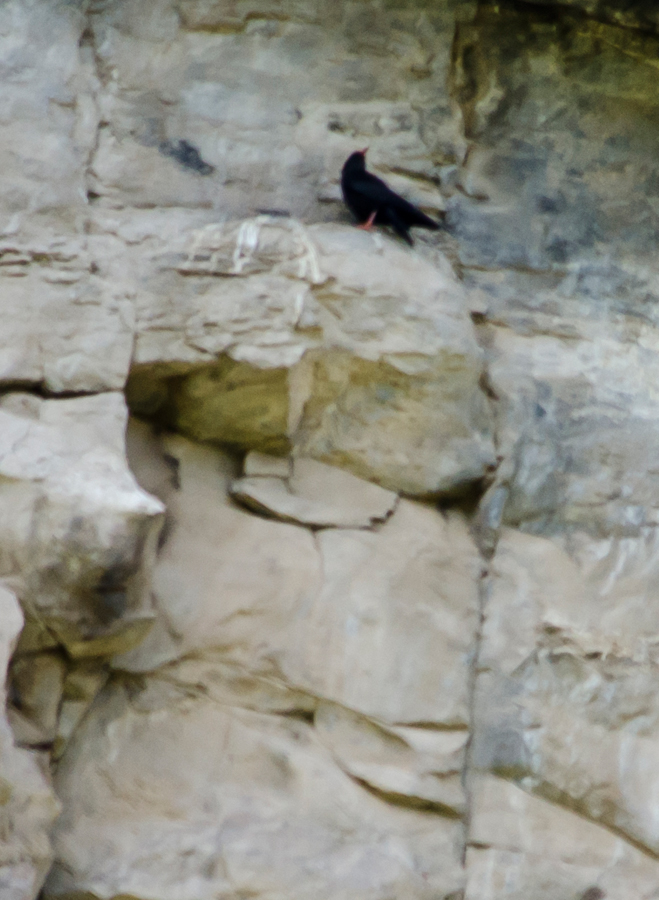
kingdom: Animalia
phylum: Chordata
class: Aves
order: Passeriformes
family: Corvidae
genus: Pyrrhocorax
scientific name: Pyrrhocorax pyrrhocorax
